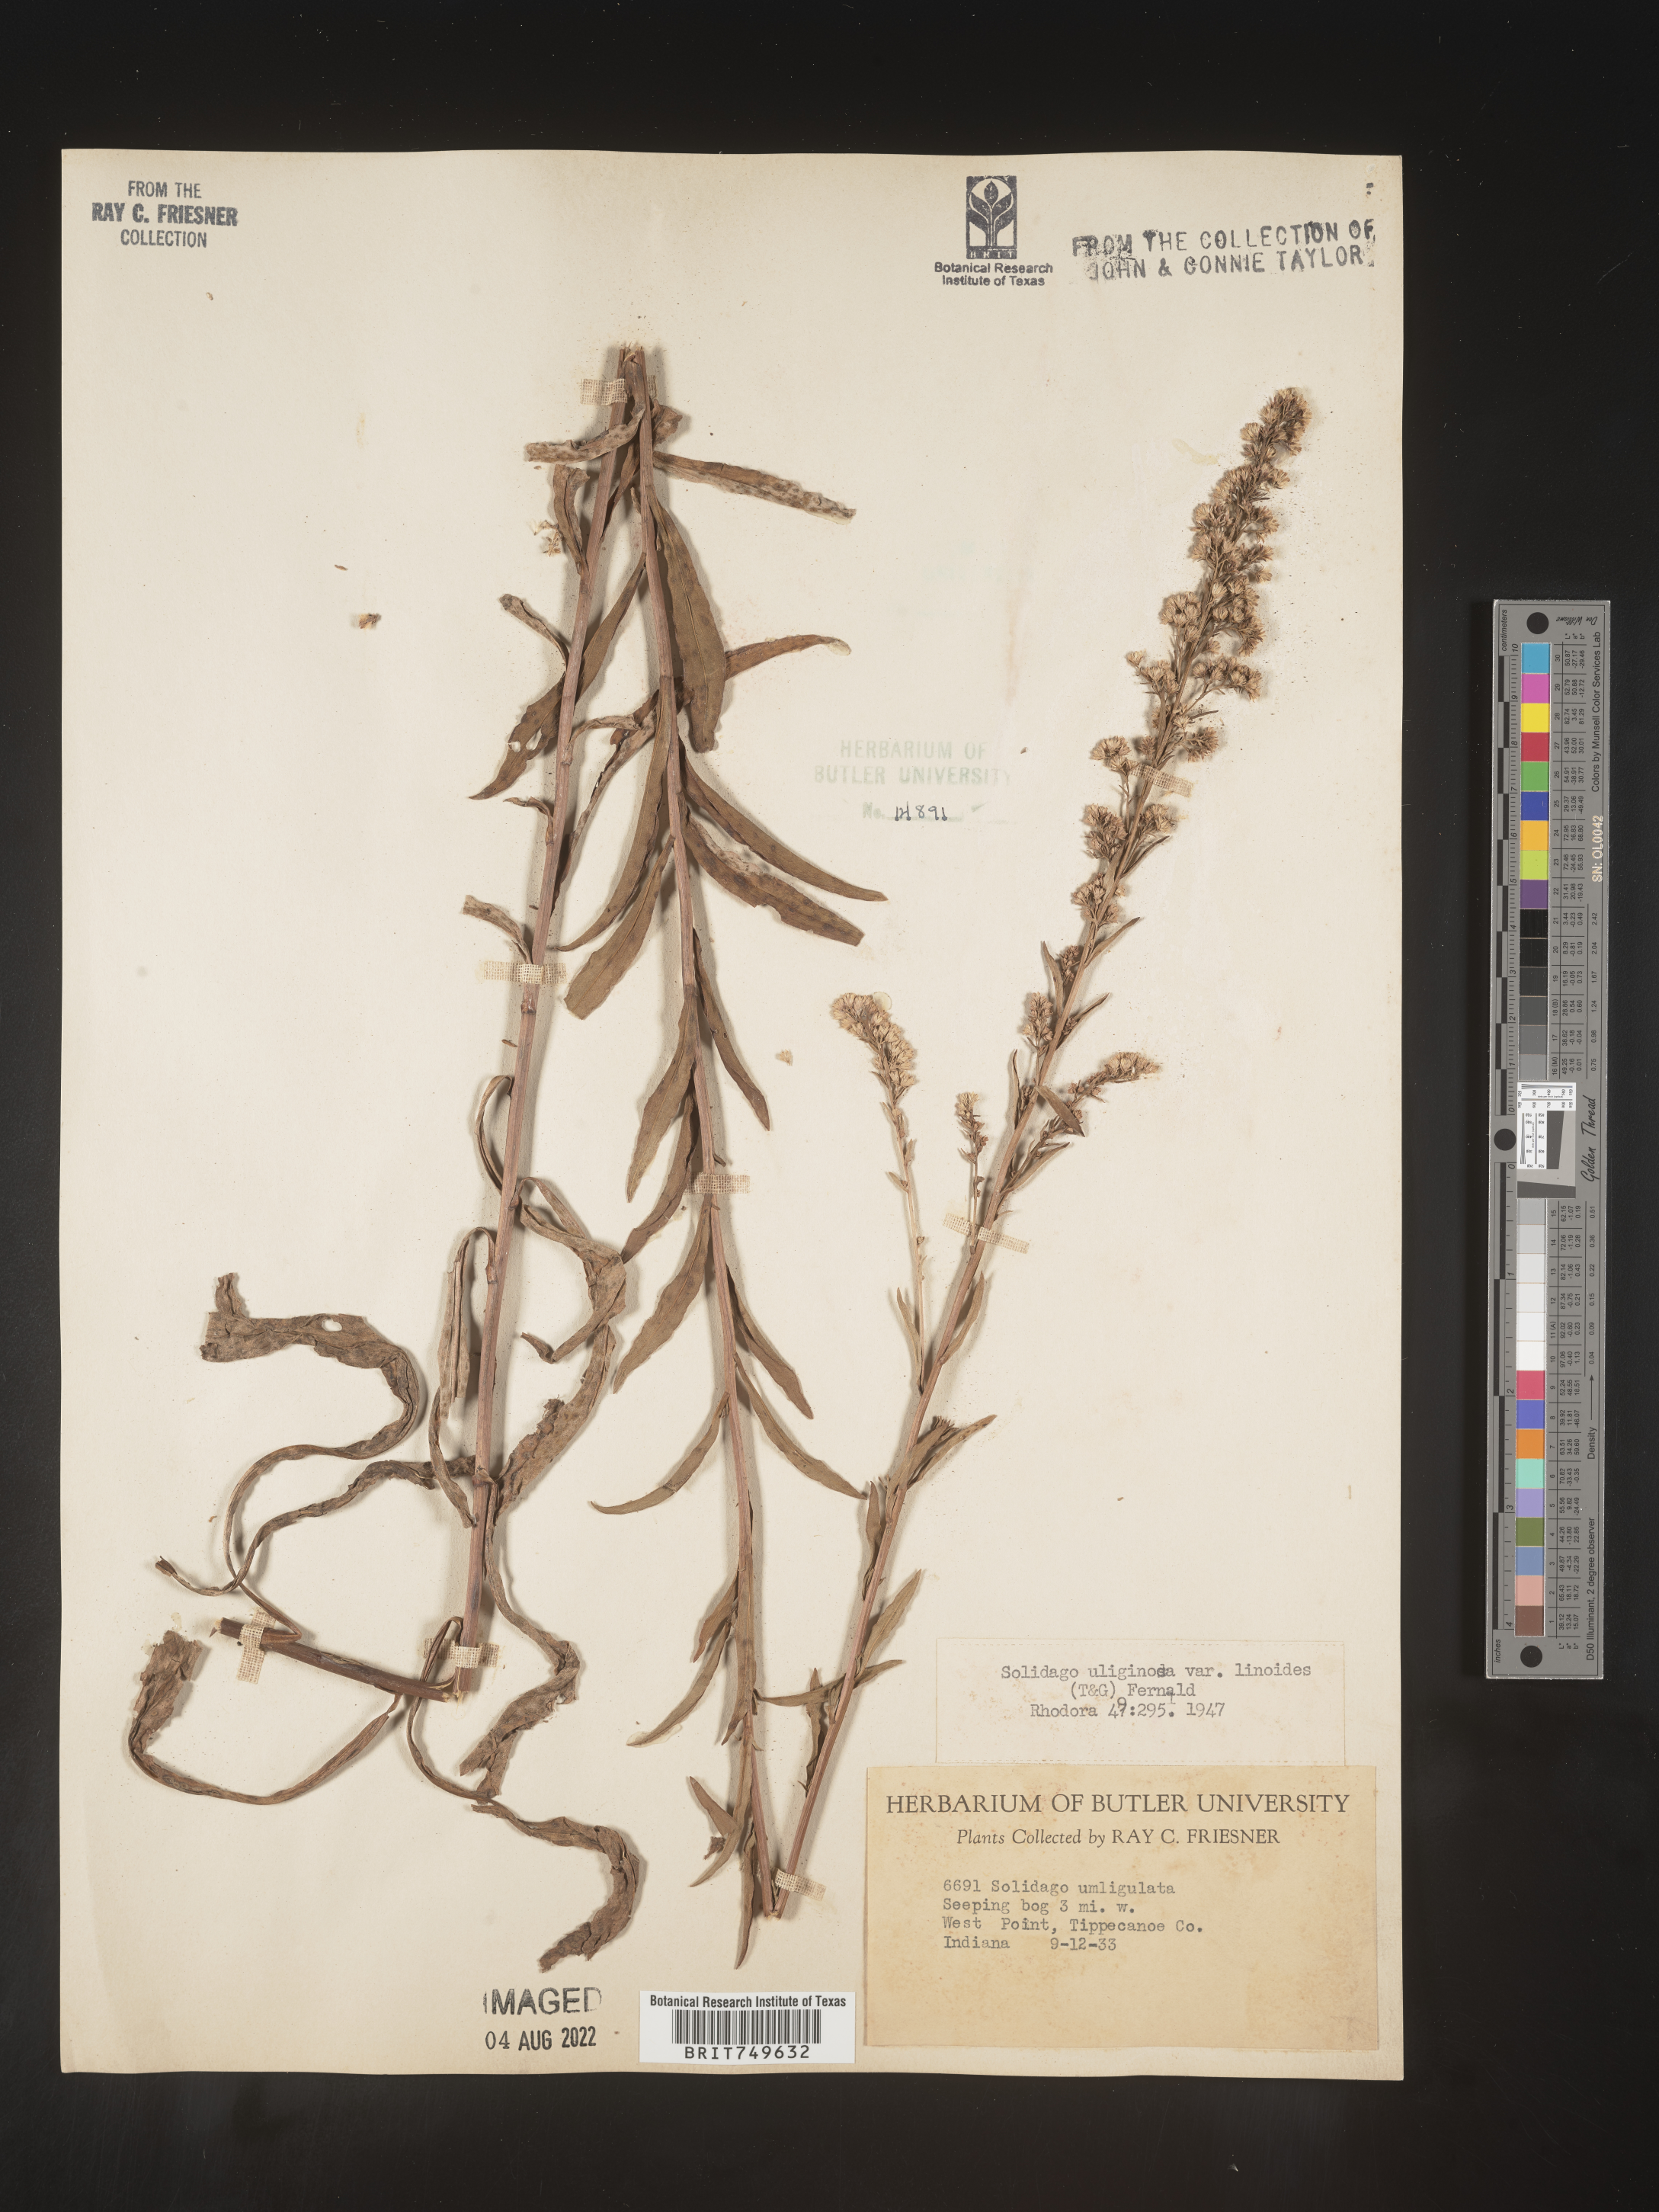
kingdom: Plantae
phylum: Tracheophyta
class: Magnoliopsida
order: Asterales
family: Asteraceae
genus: Solidago
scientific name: Solidago uliginosa
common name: Bog goldenrod
